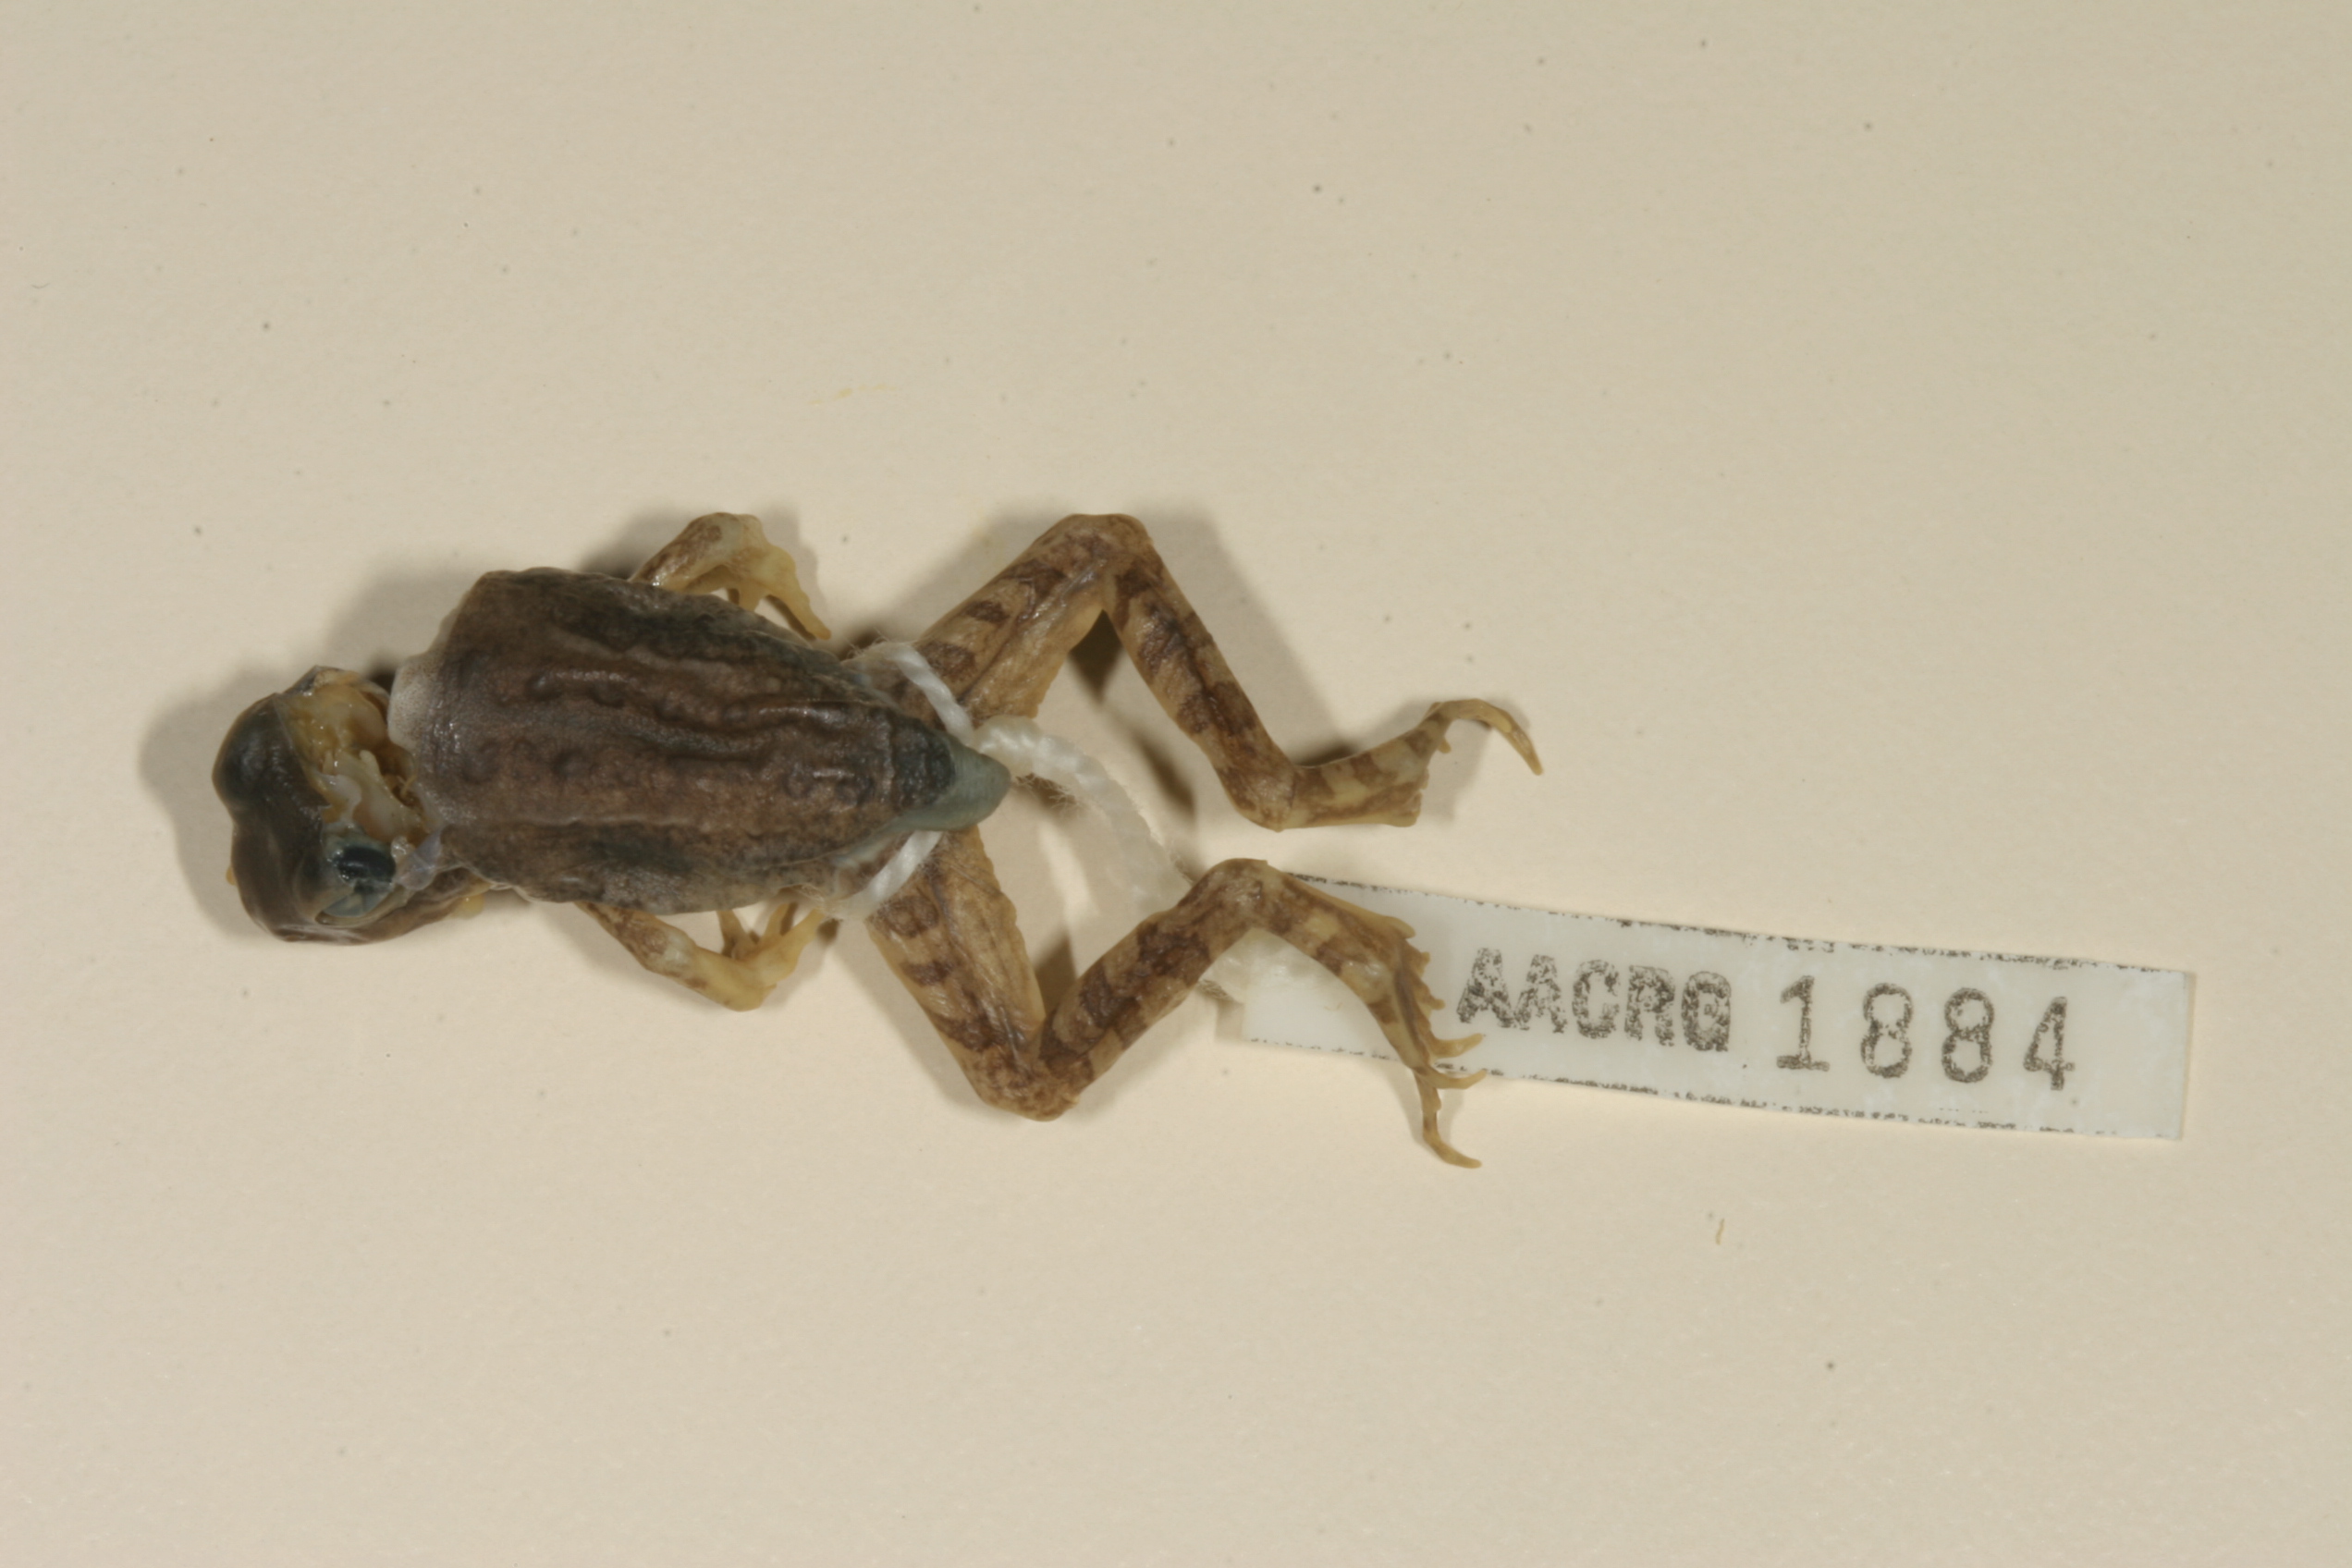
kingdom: Animalia
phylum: Chordata
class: Amphibia
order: Anura
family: Ptychadenidae
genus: Hildebrandtia
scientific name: Hildebrandtia ornata
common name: Ornate frog
